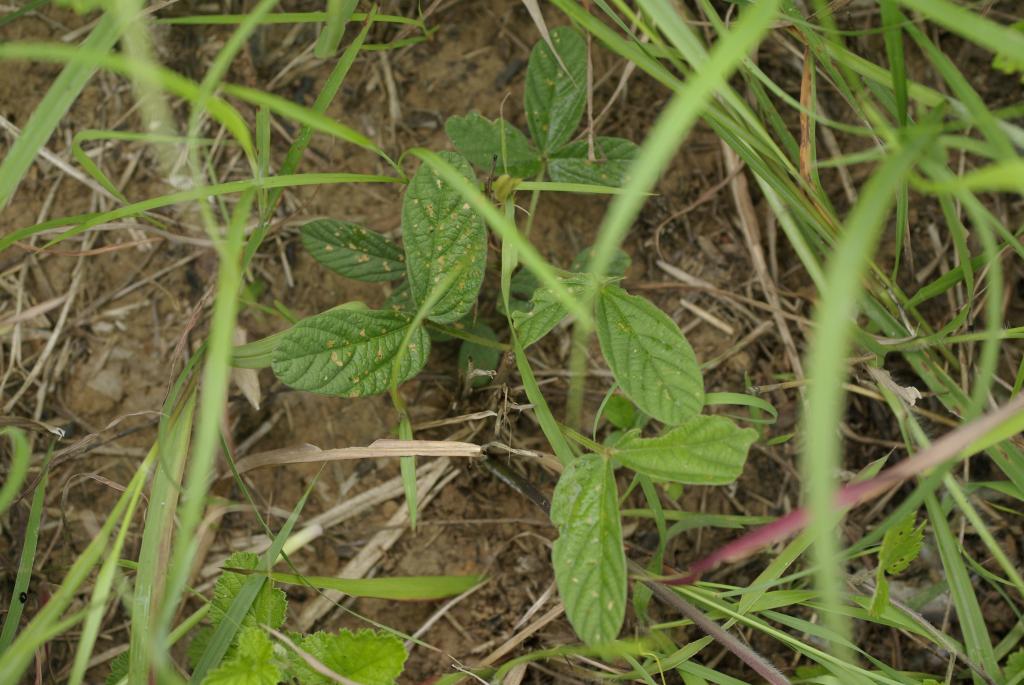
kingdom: Plantae
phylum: Tracheophyta
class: Magnoliopsida
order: Fabales
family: Fabaceae
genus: Flemingia
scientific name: Flemingia macrophylla
